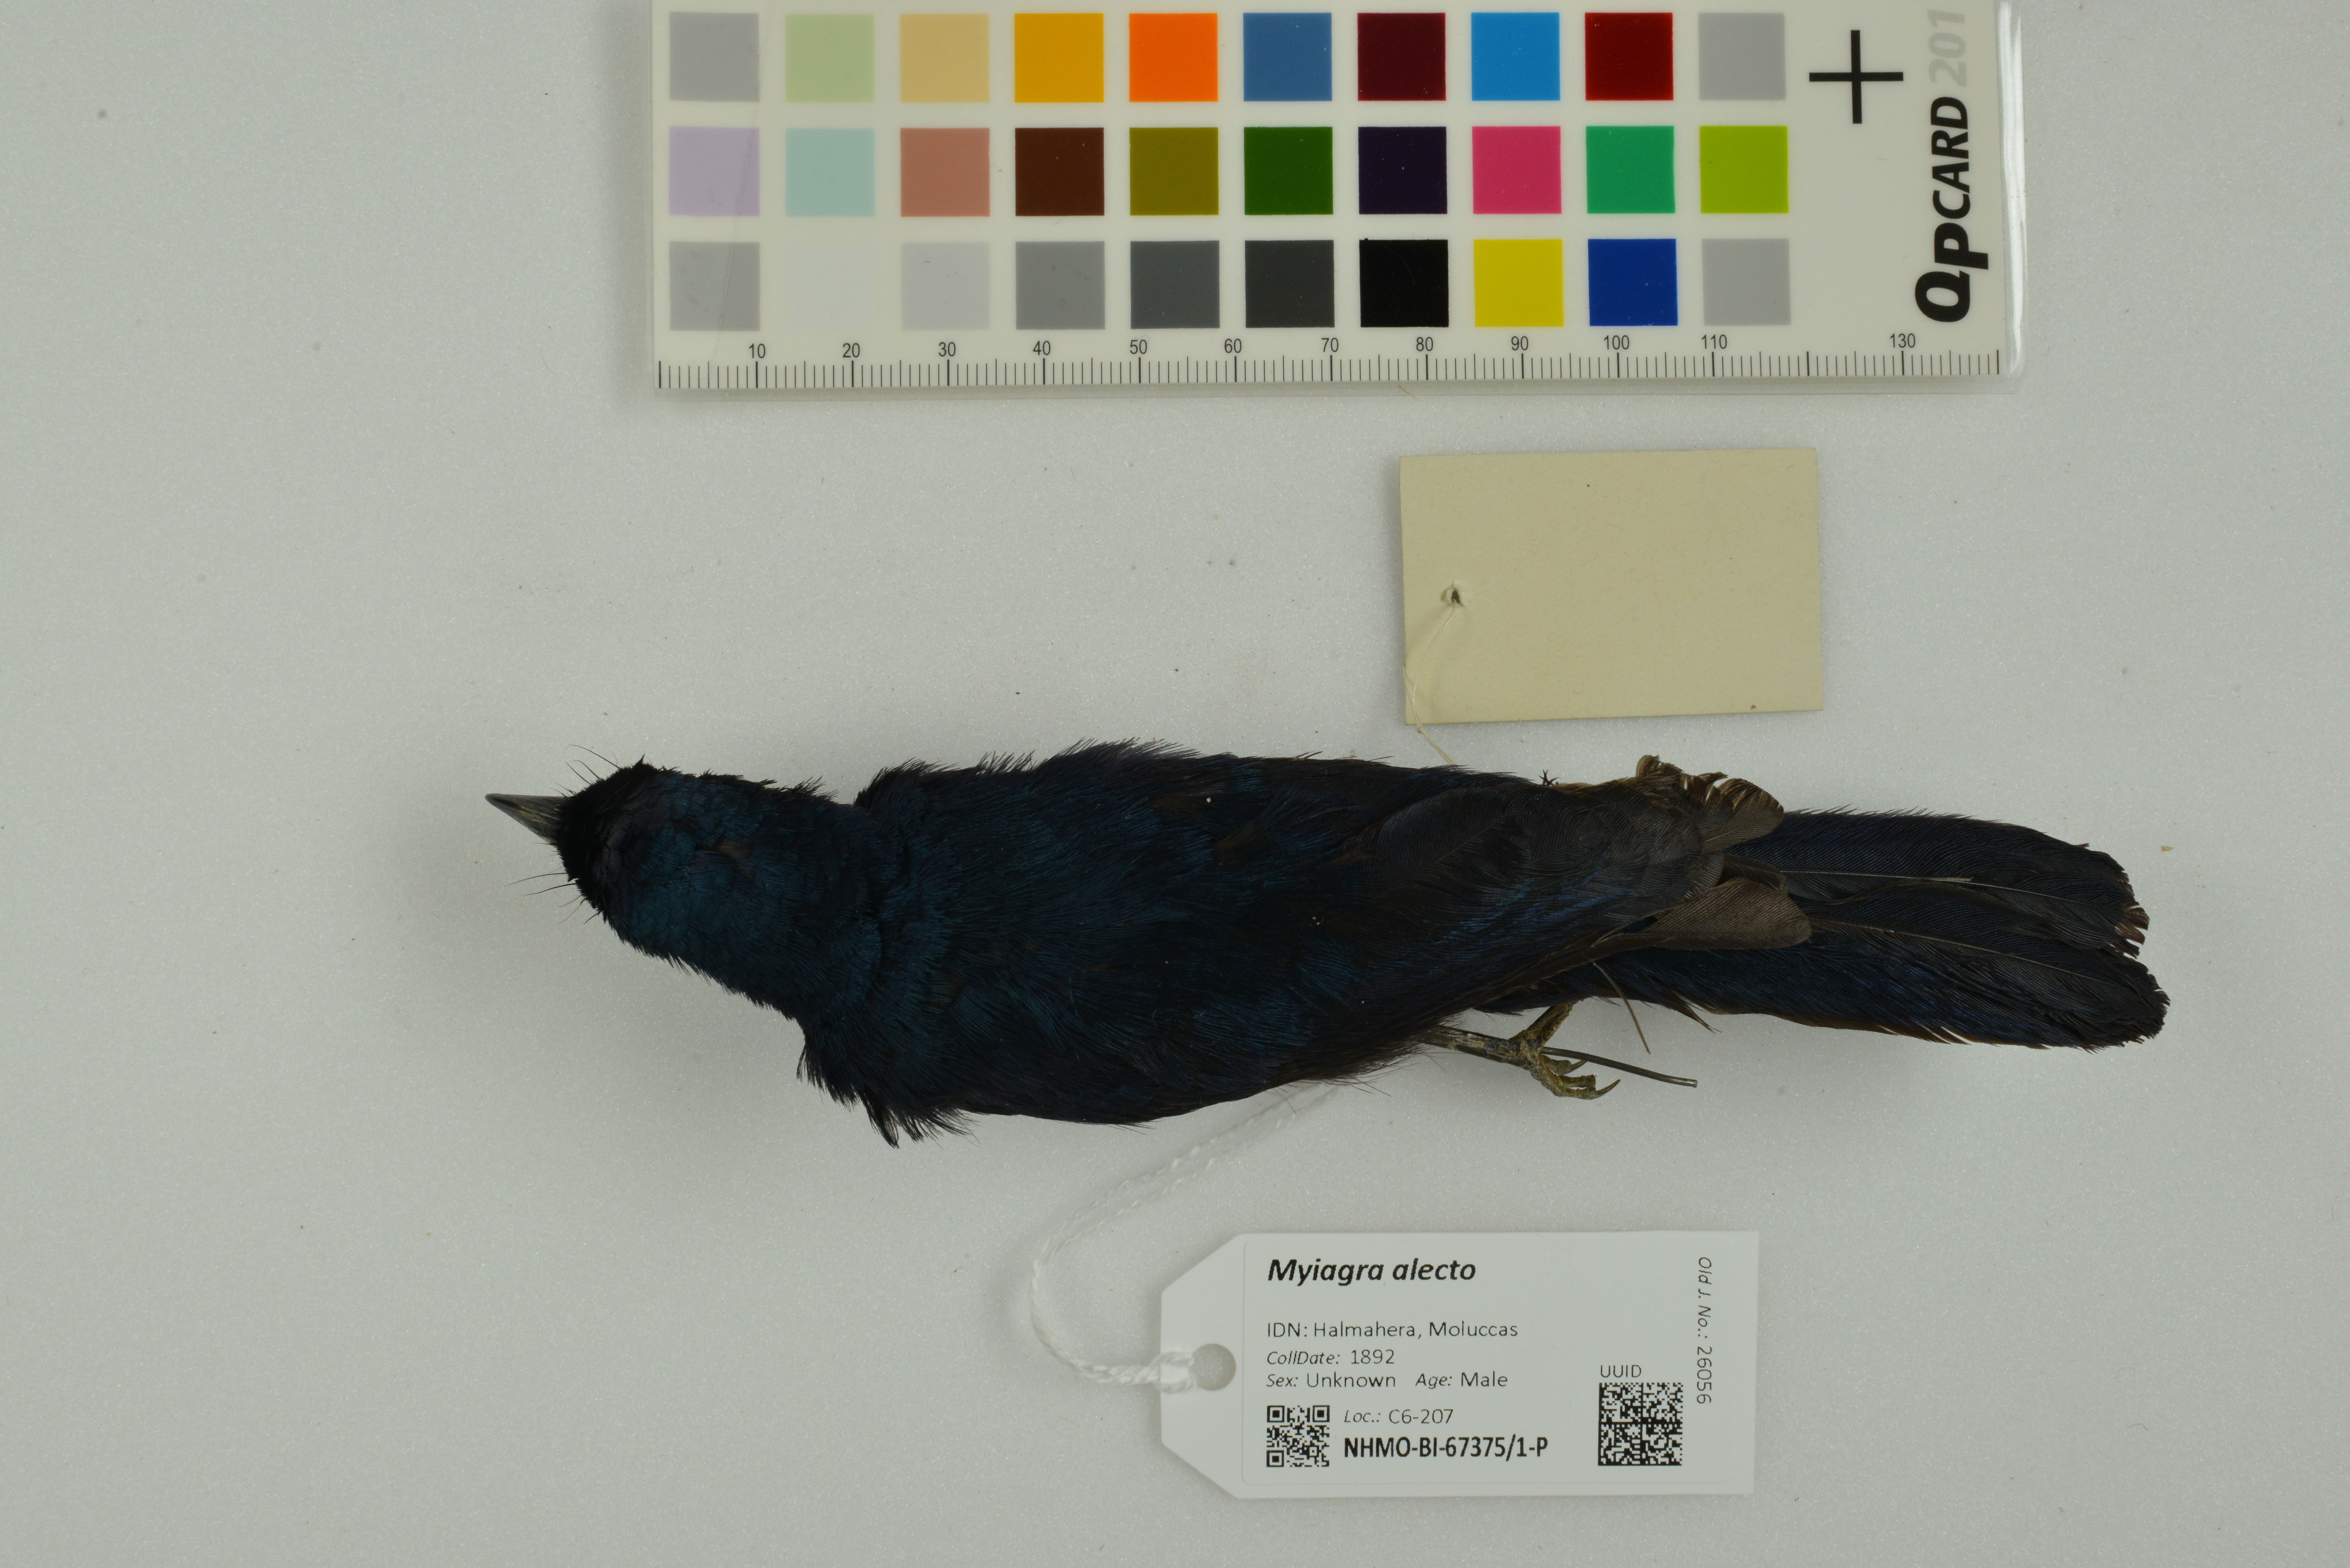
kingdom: Animalia
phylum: Chordata
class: Aves
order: Passeriformes
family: Monarchidae
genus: Myiagra
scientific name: Myiagra alecto
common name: Shining flycatcher
